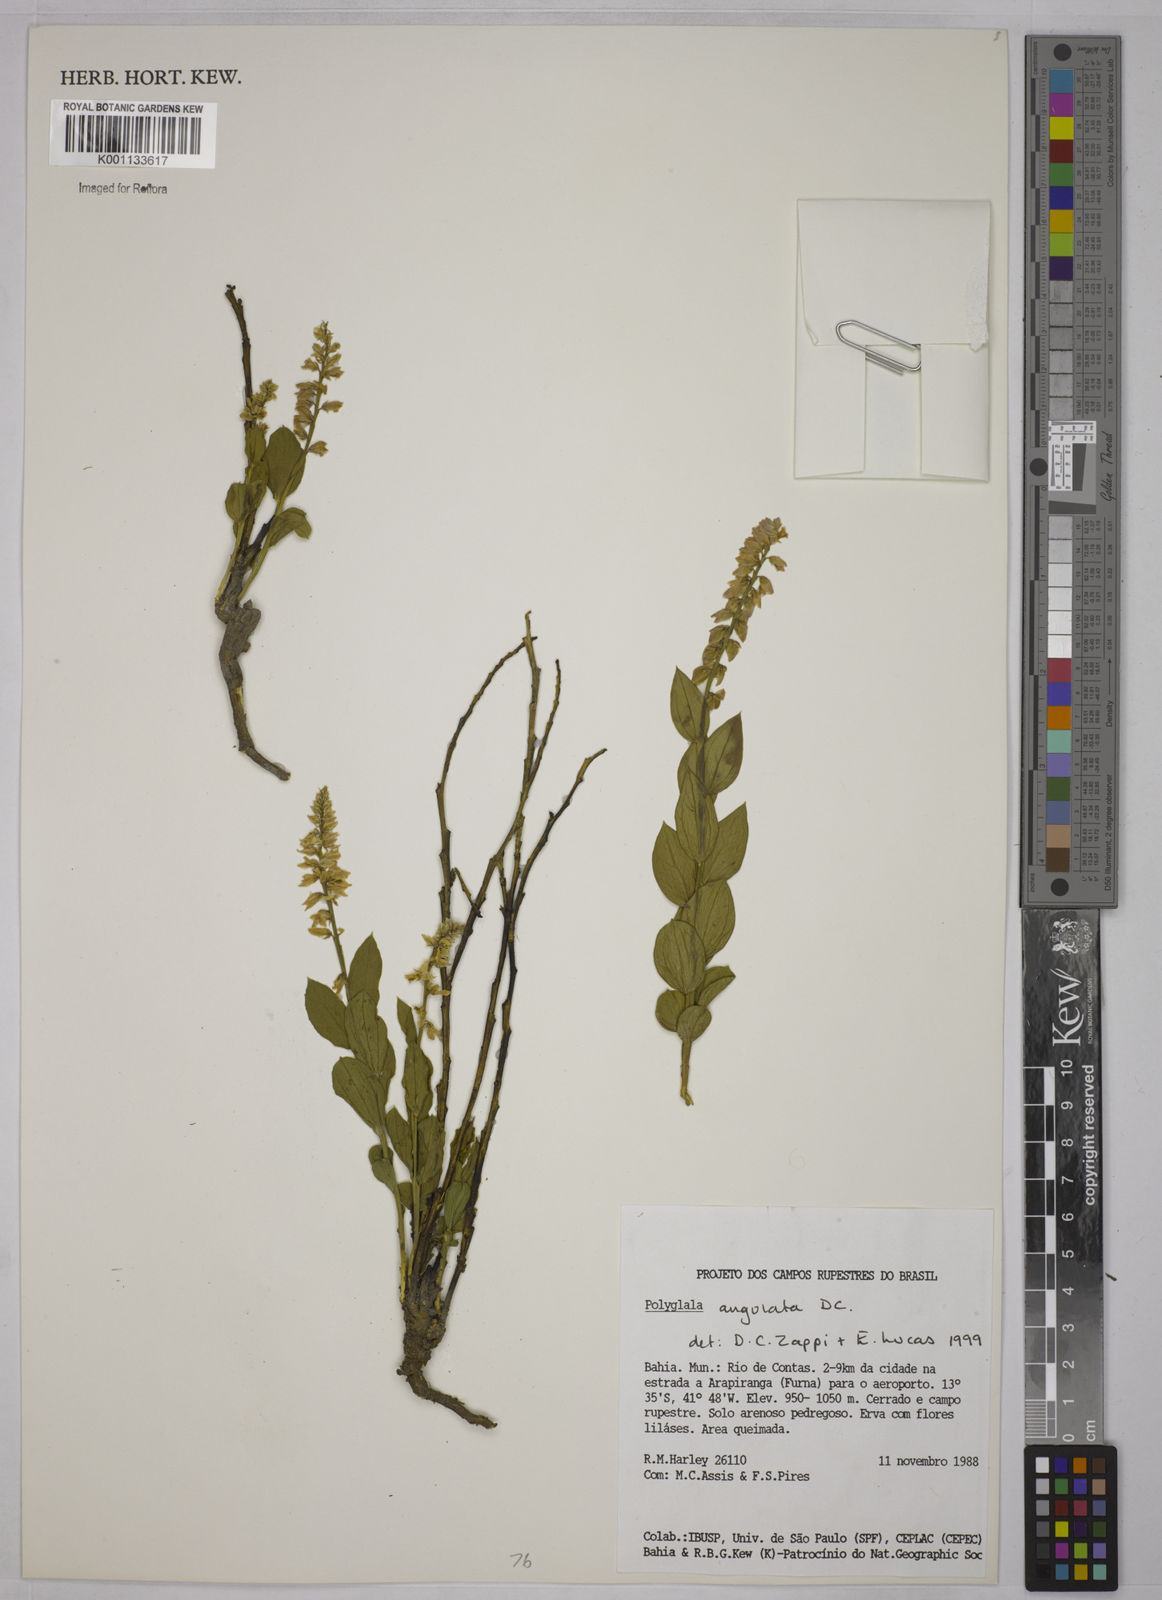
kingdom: Plantae
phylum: Tracheophyta
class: Magnoliopsida
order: Fabales
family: Polygalaceae
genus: Polygala
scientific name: Polygala poaya
